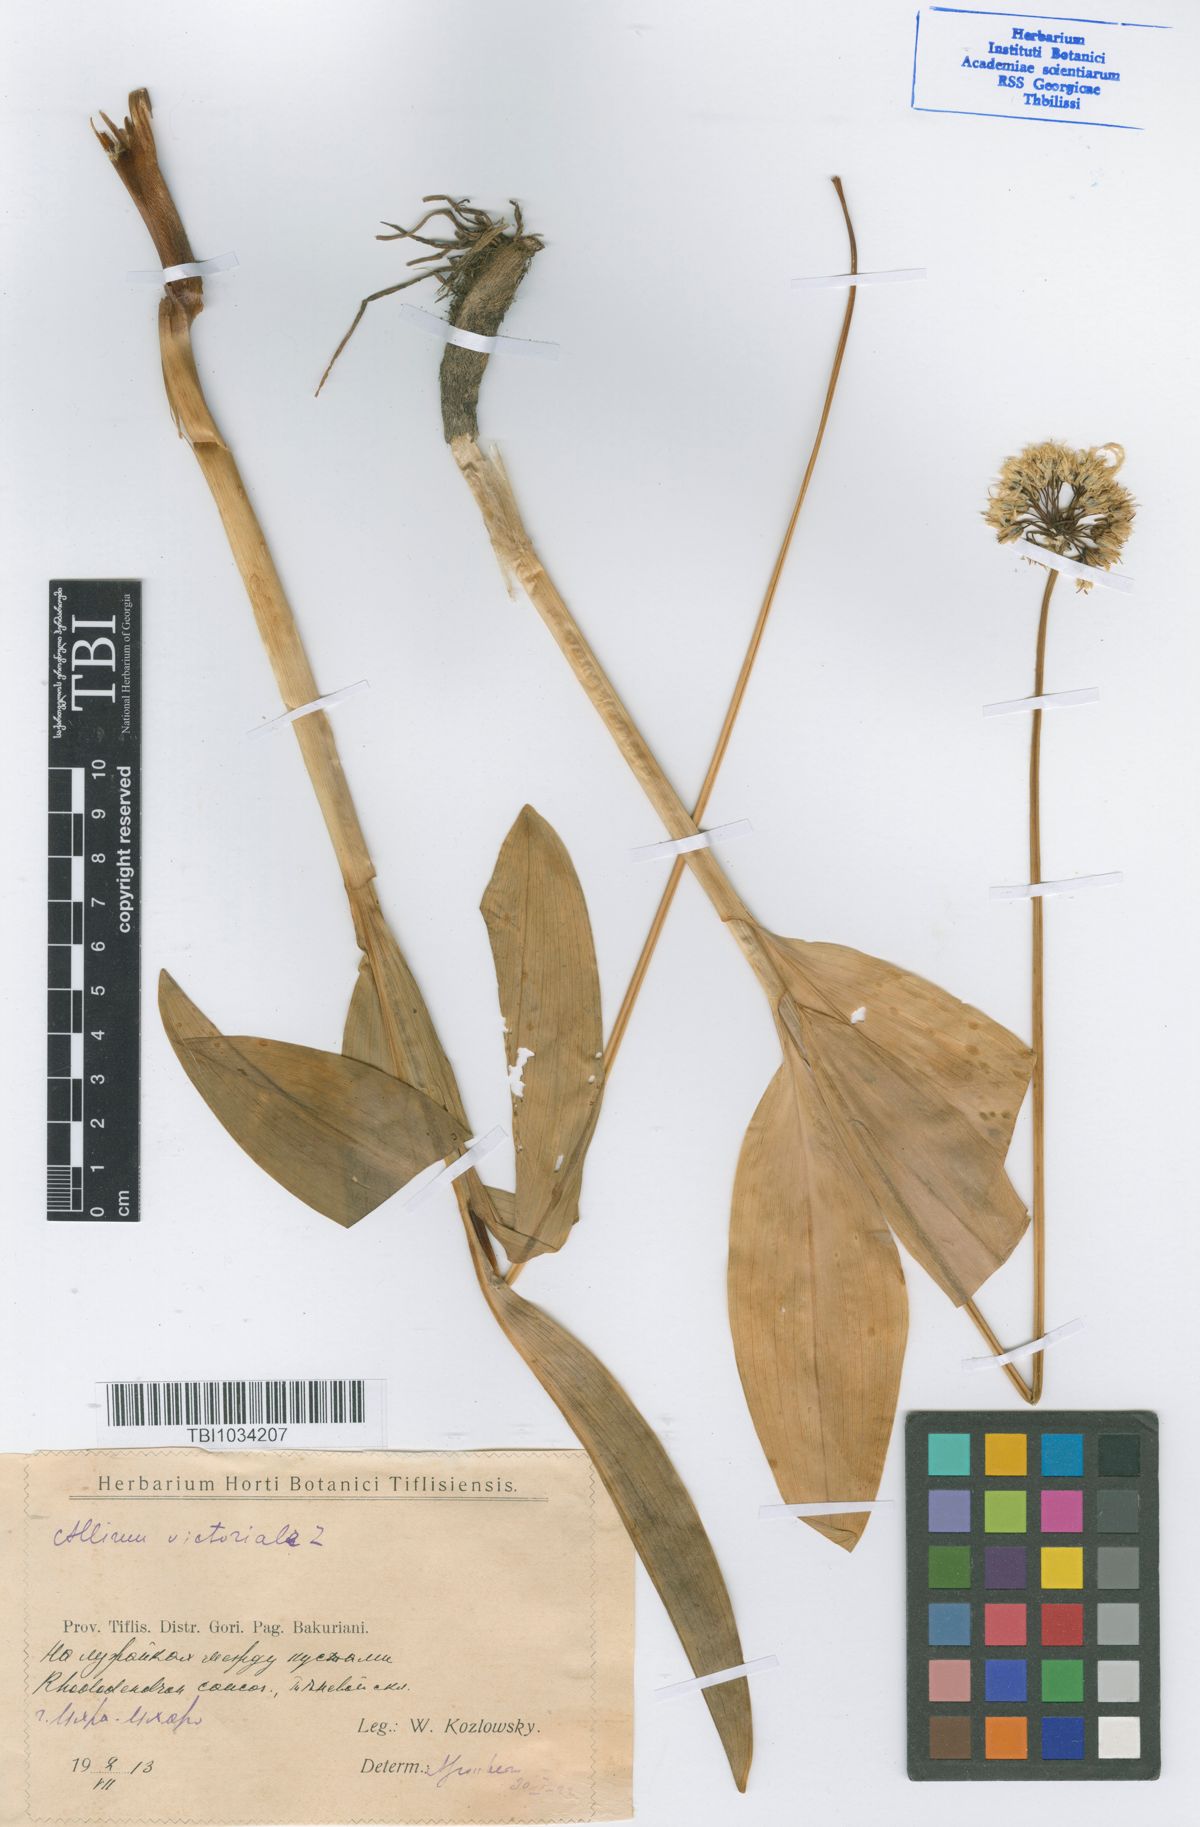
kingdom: Plantae
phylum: Tracheophyta
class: Liliopsida
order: Asparagales
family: Amaryllidaceae
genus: Allium
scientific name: Allium victorialis
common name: Alpine leek
